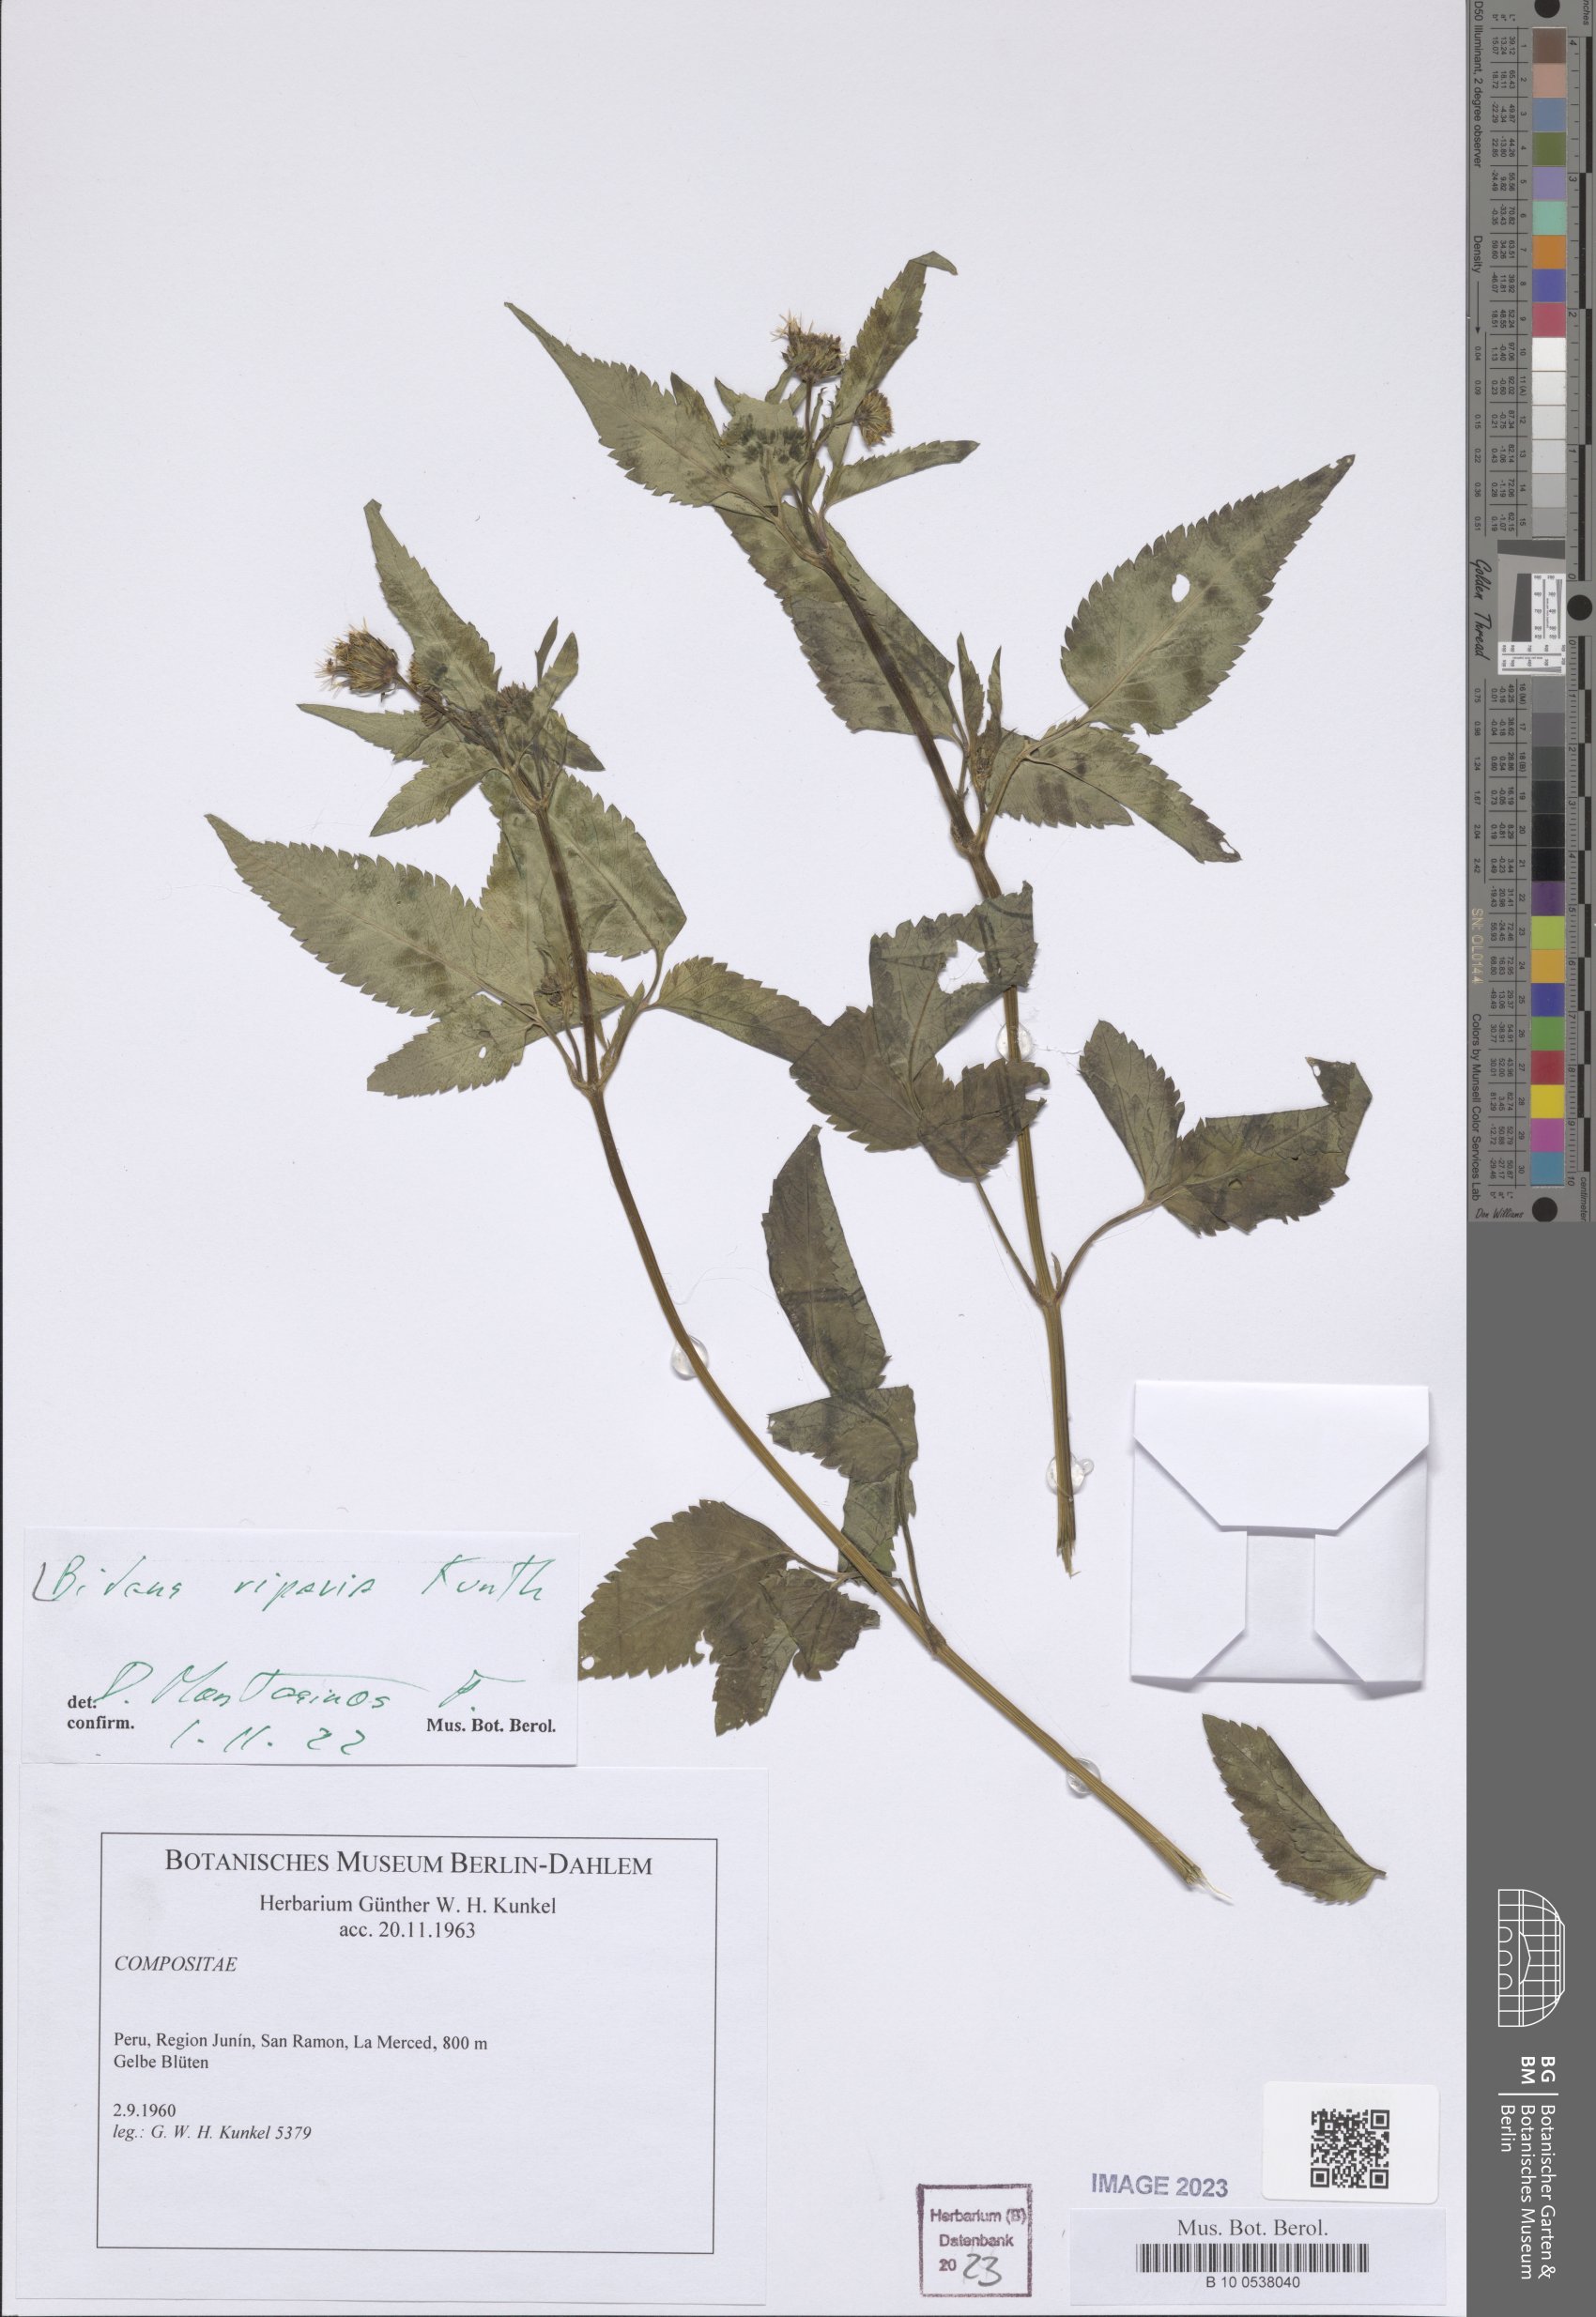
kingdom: Plantae
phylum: Tracheophyta
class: Magnoliopsida
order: Asterales
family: Asteraceae
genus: Bidens
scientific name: Bidens riparia
